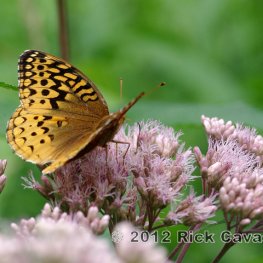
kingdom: Animalia
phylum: Arthropoda
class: Insecta
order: Lepidoptera
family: Nymphalidae
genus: Speyeria
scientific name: Speyeria cybele
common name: Great Spangled Fritillary
